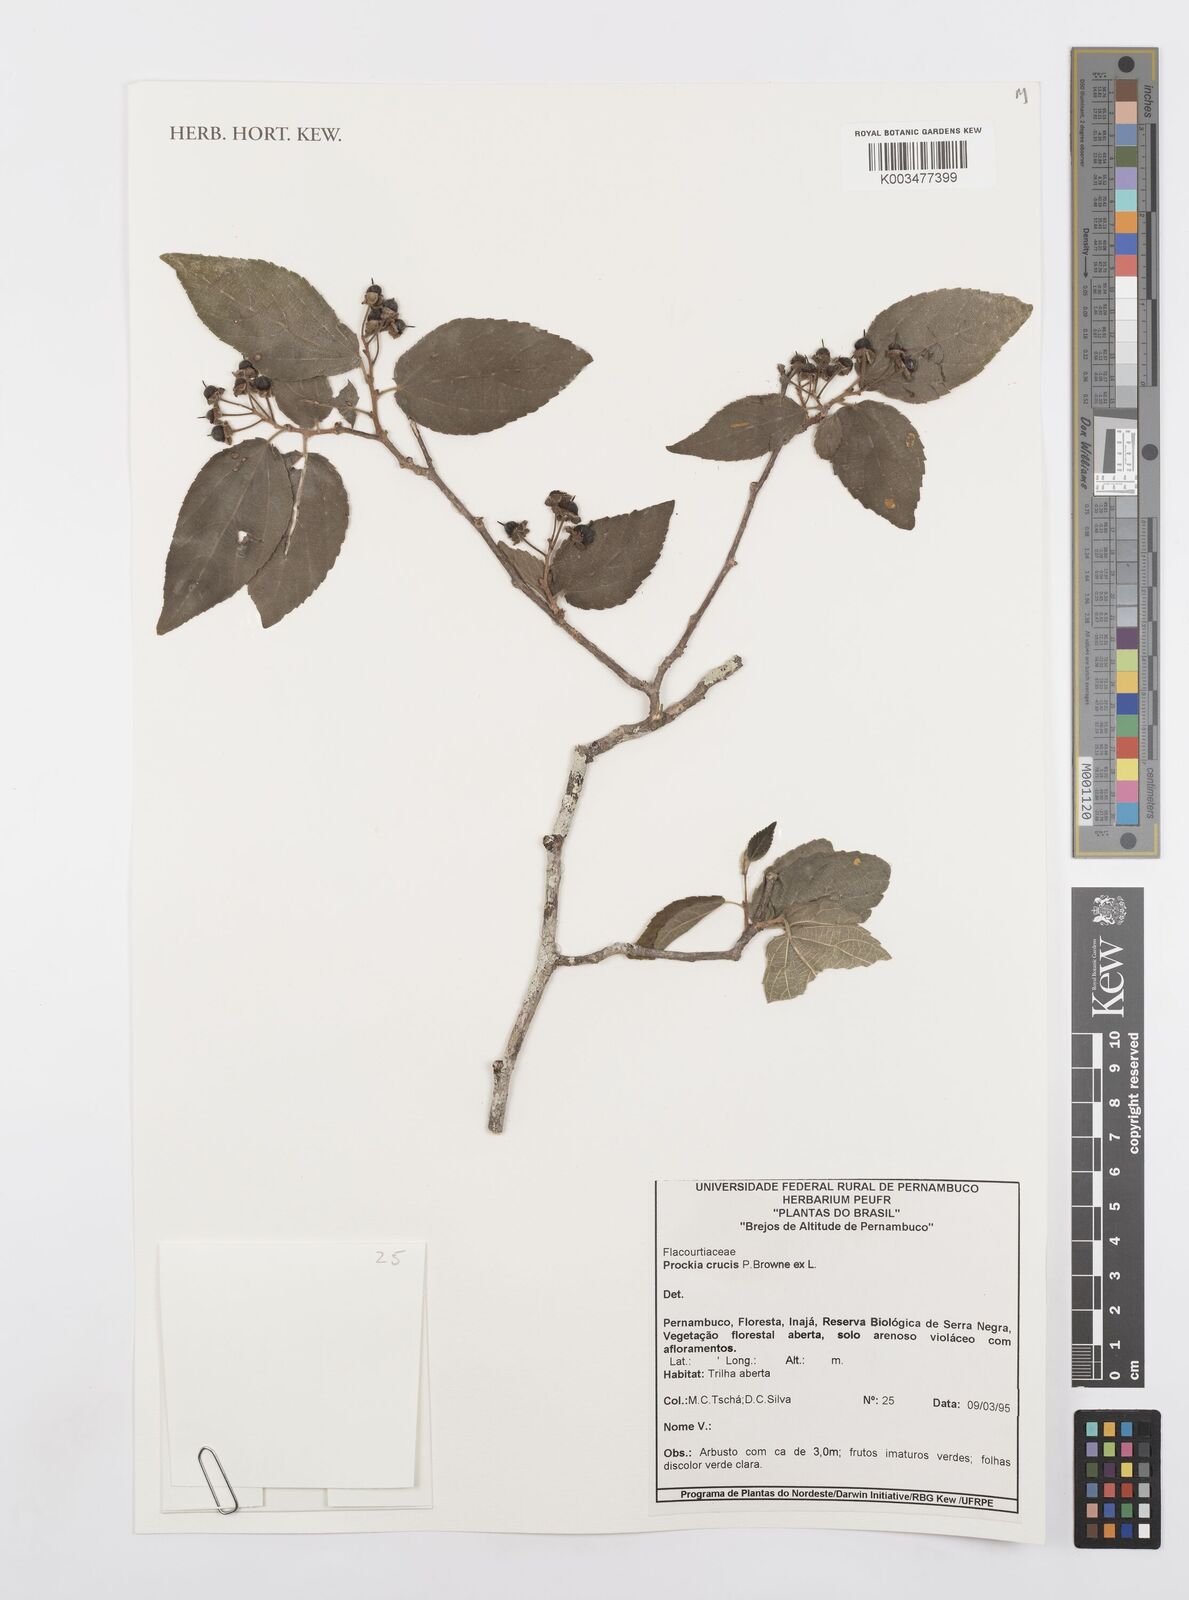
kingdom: Plantae
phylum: Tracheophyta
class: Magnoliopsida
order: Malpighiales
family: Salicaceae
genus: Prockia
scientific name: Prockia crucis
